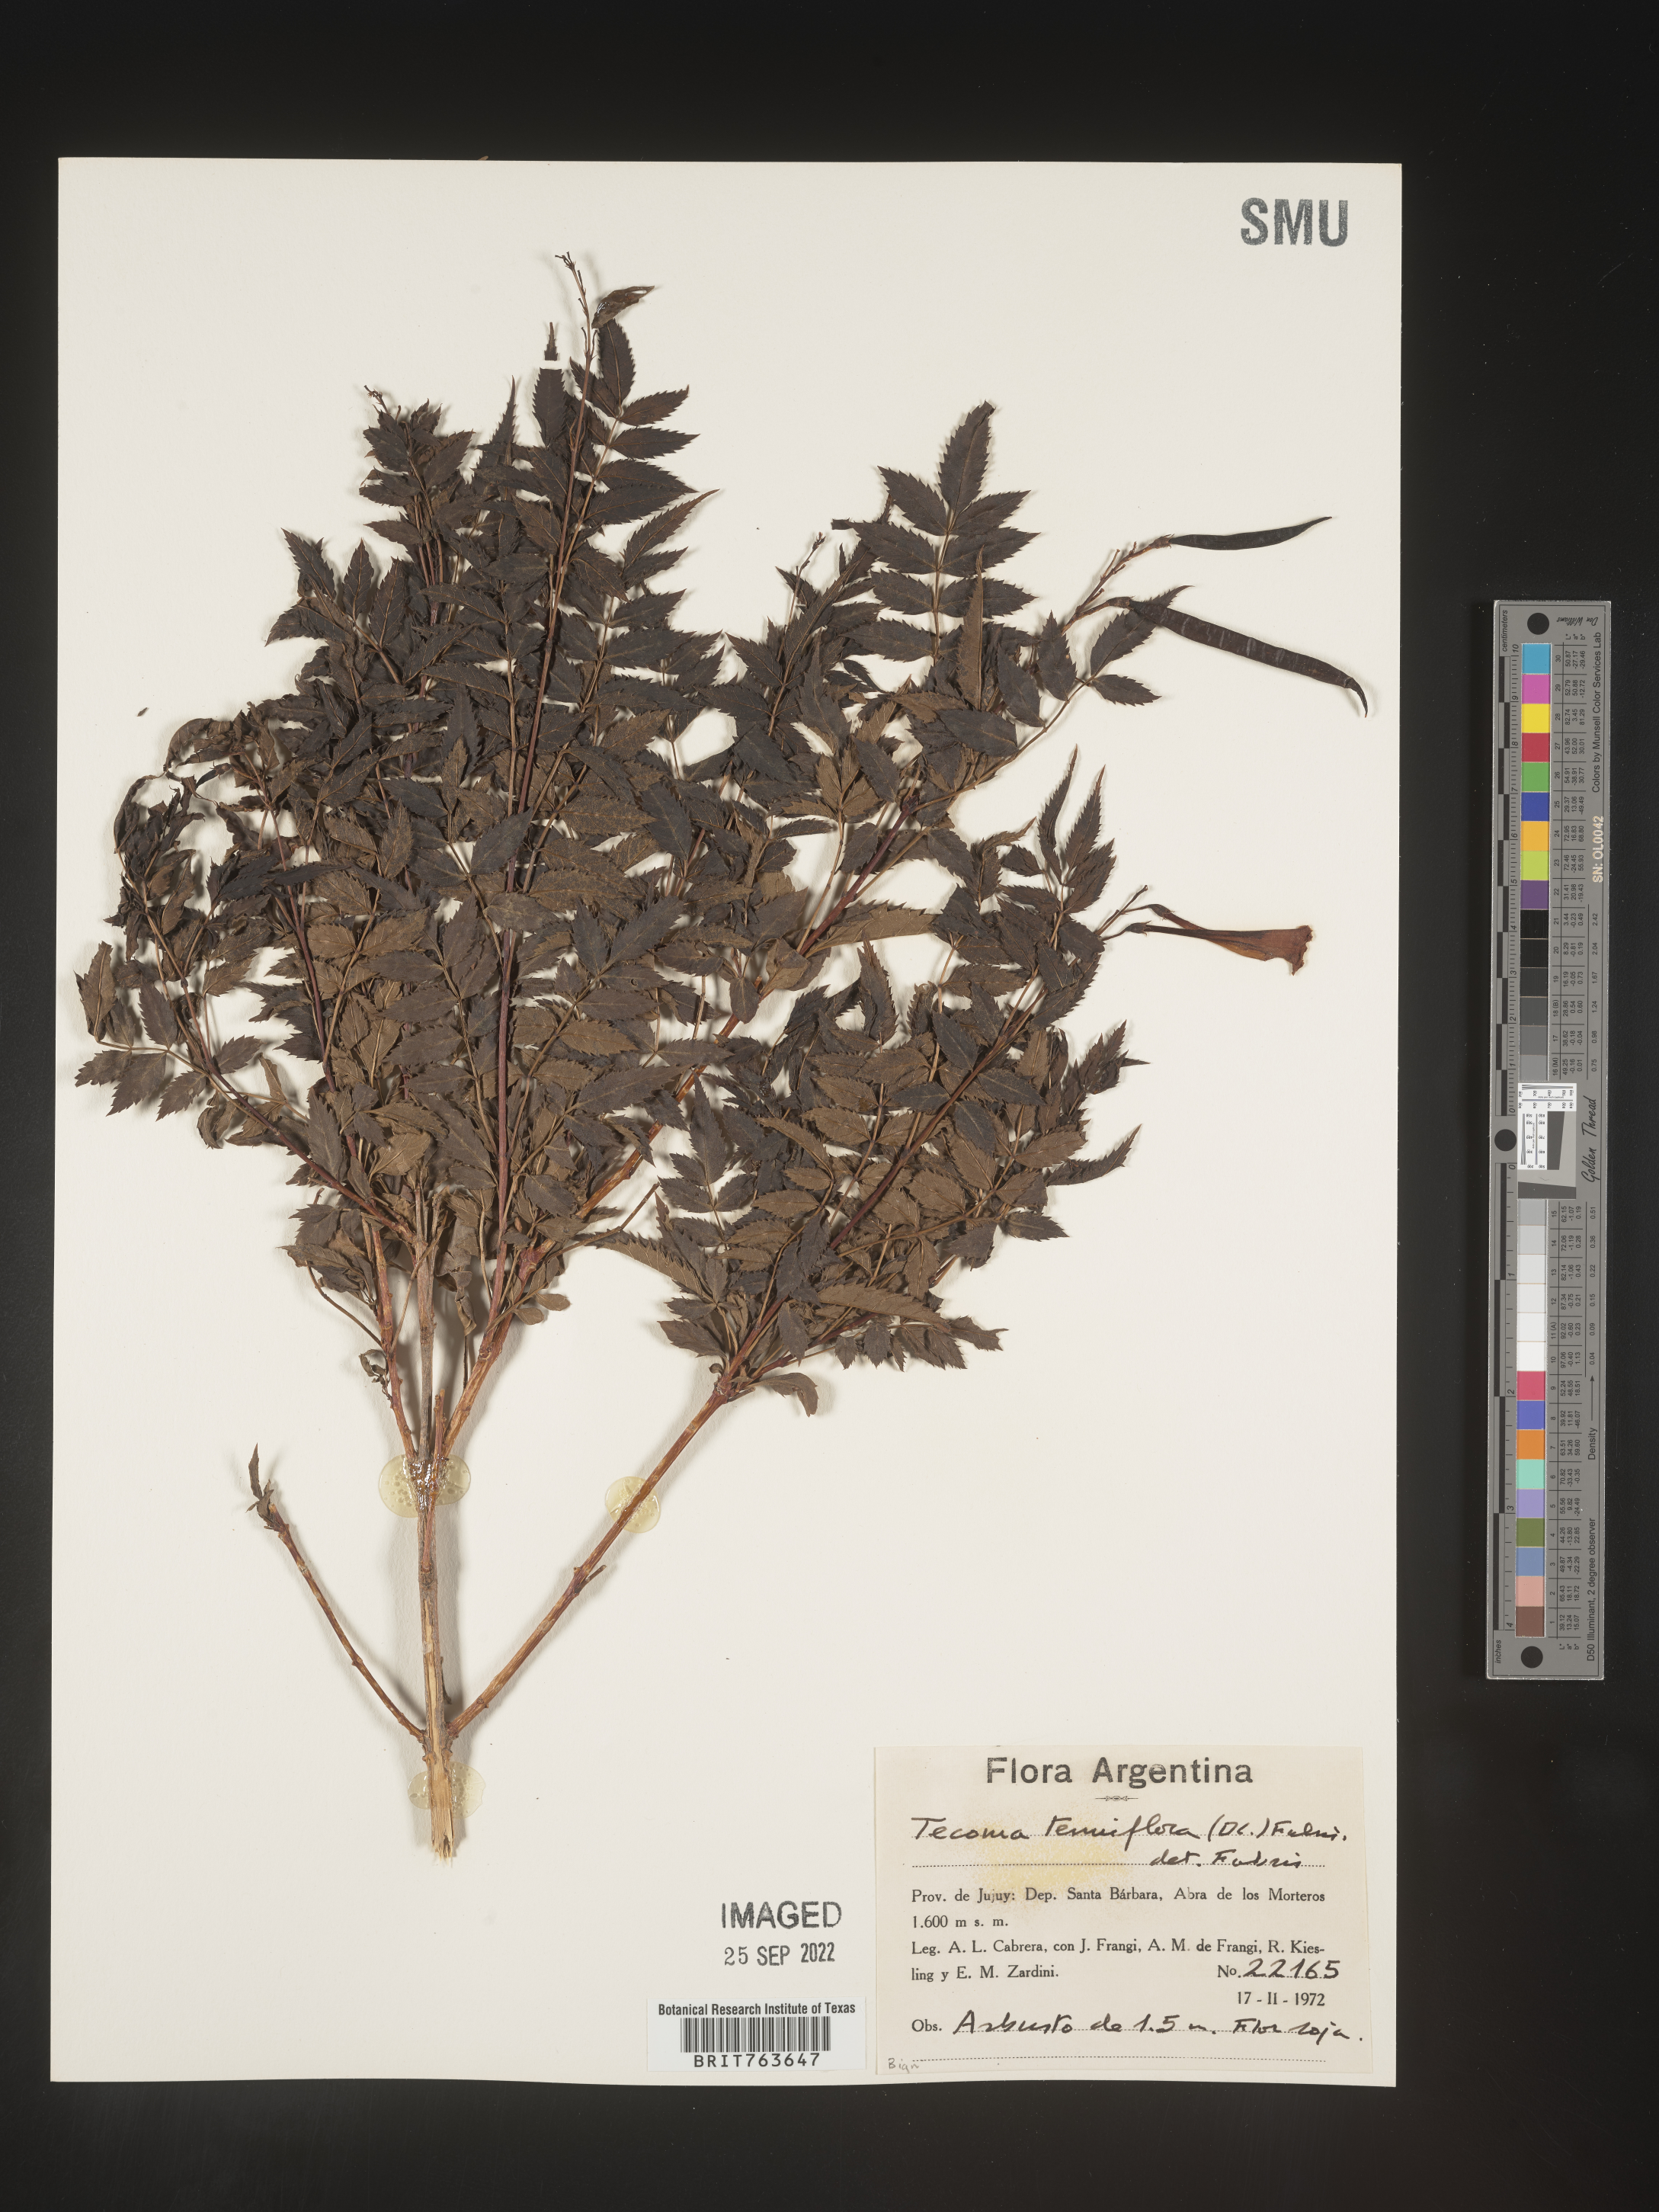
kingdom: Plantae
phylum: Tracheophyta
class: Magnoliopsida
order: Lamiales
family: Bignoniaceae
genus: Tecoma
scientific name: Tecoma
